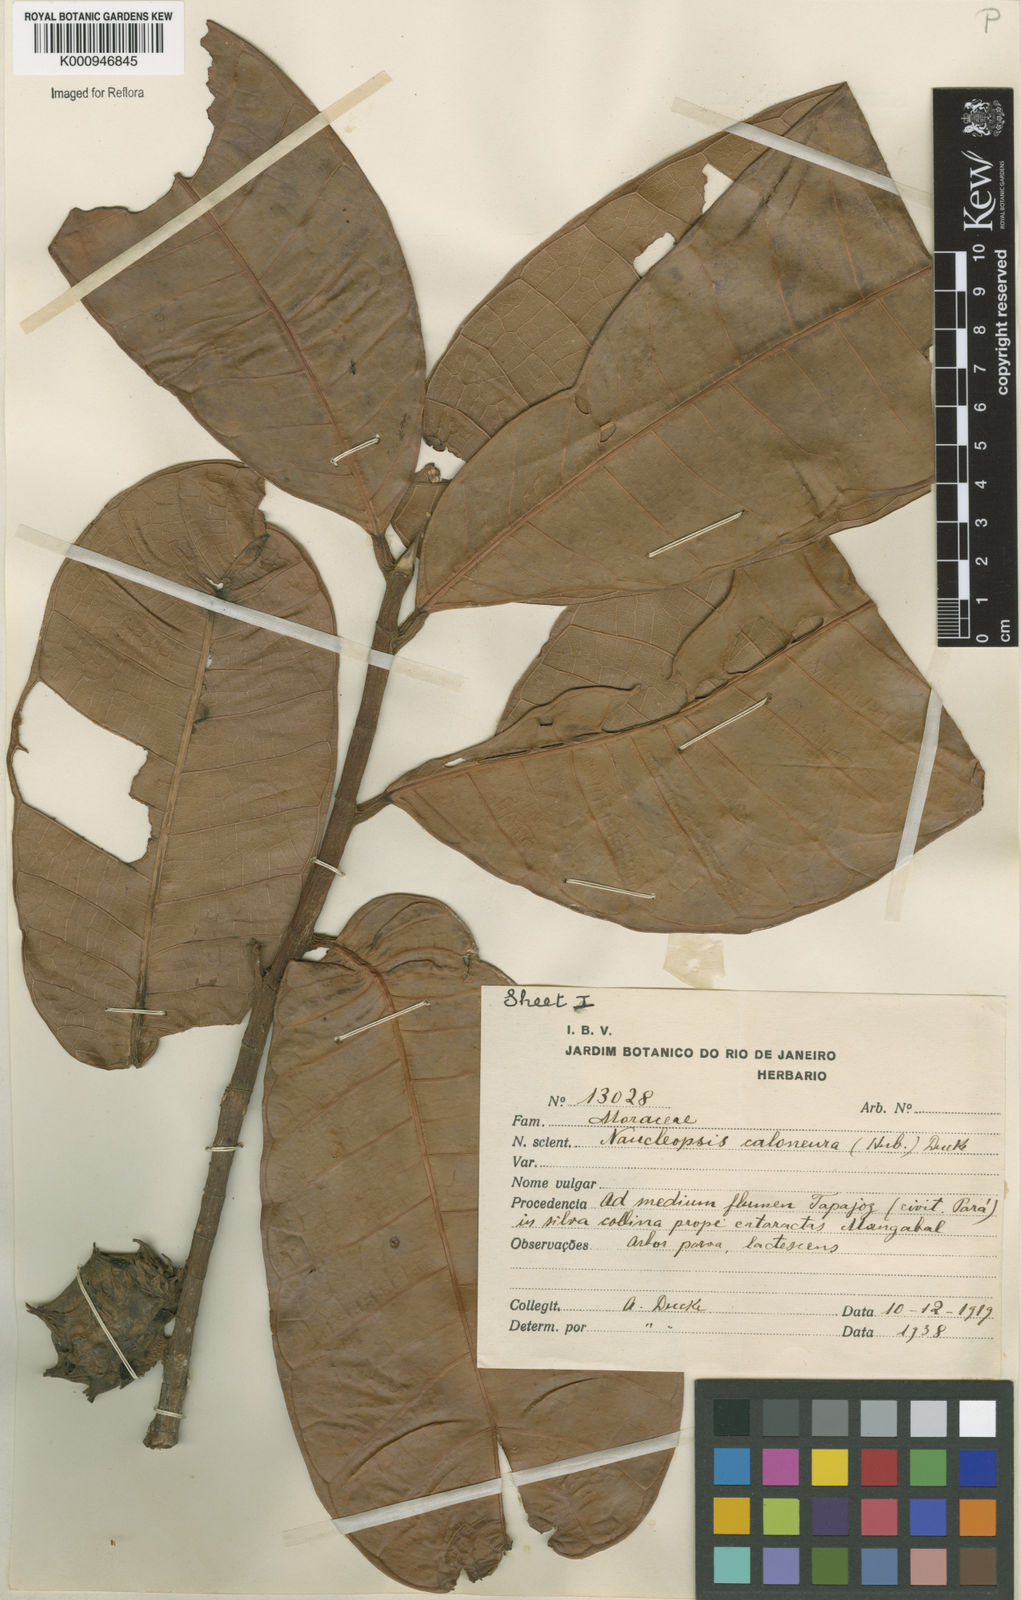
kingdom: Plantae
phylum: Tracheophyta
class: Magnoliopsida
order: Rosales
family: Moraceae
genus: Naucleopsis
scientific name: Naucleopsis caloneura
